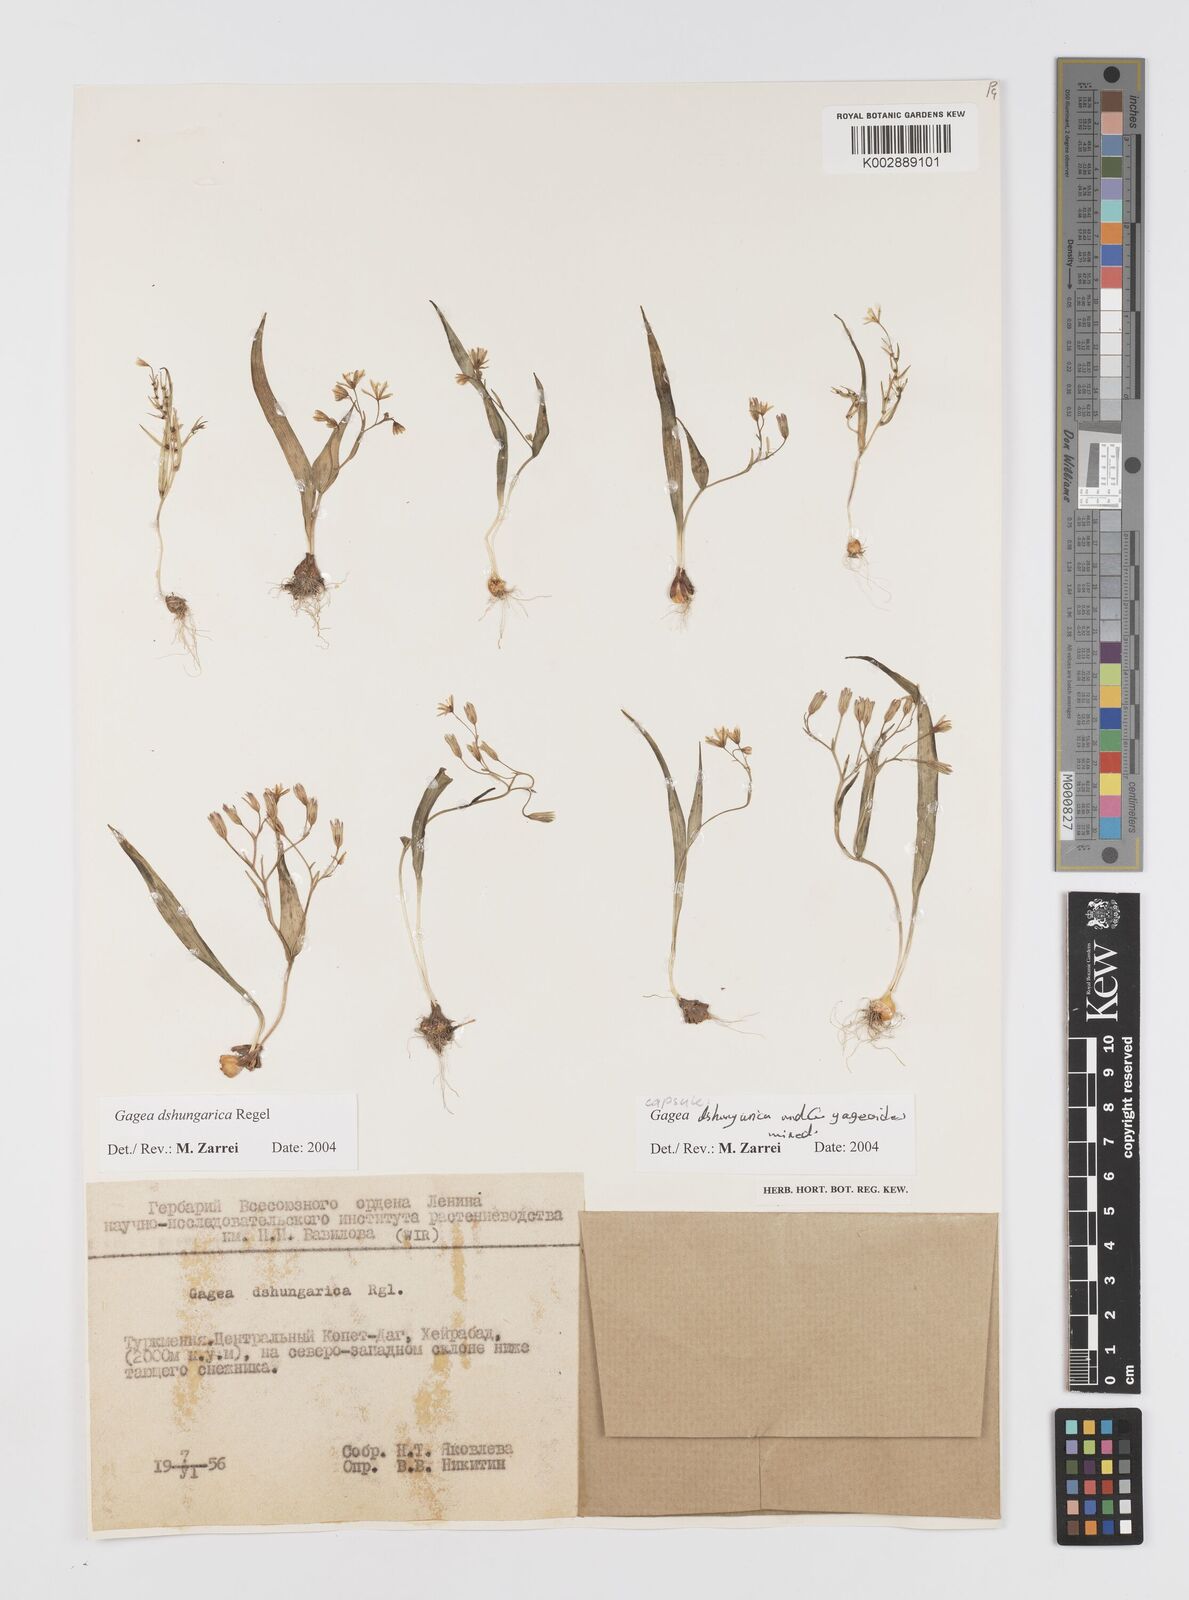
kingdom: Plantae
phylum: Tracheophyta
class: Liliopsida
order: Liliales
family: Liliaceae
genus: Gagea
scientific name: Gagea dschungarica
